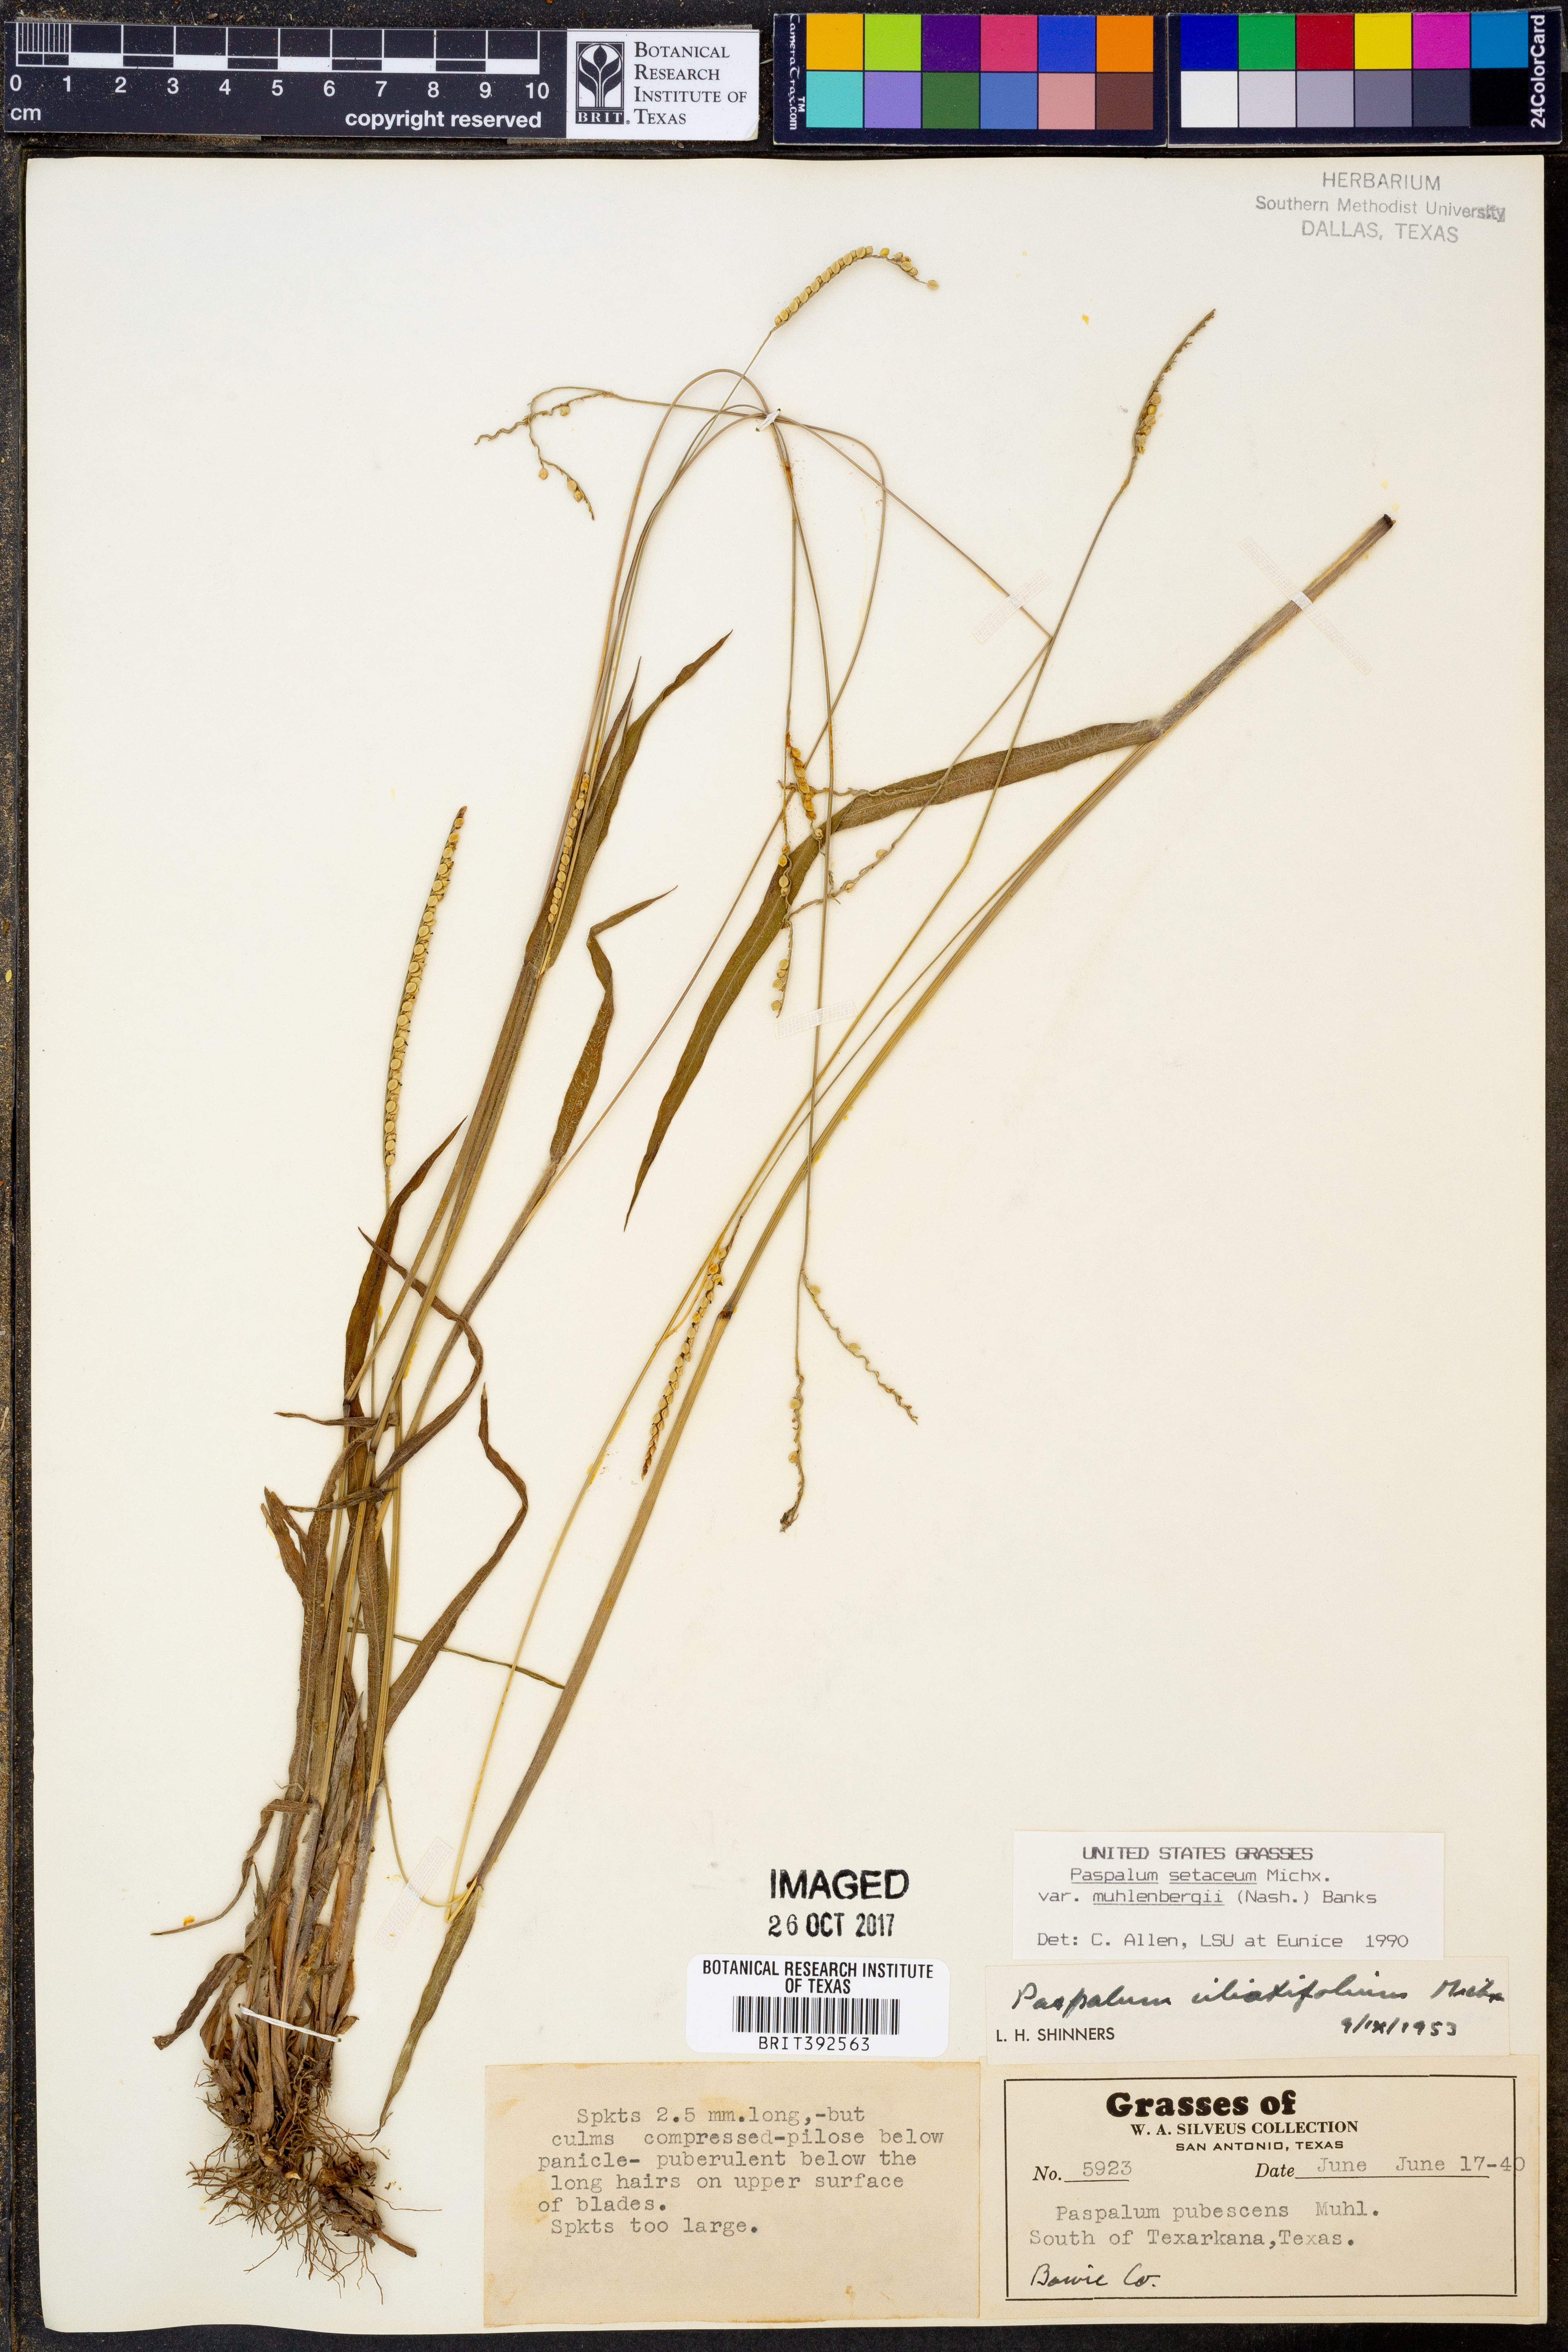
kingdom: Plantae
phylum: Tracheophyta
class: Liliopsida
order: Poales
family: Poaceae
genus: Paspalum
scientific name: Paspalum setaceum
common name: Slender paspalum
